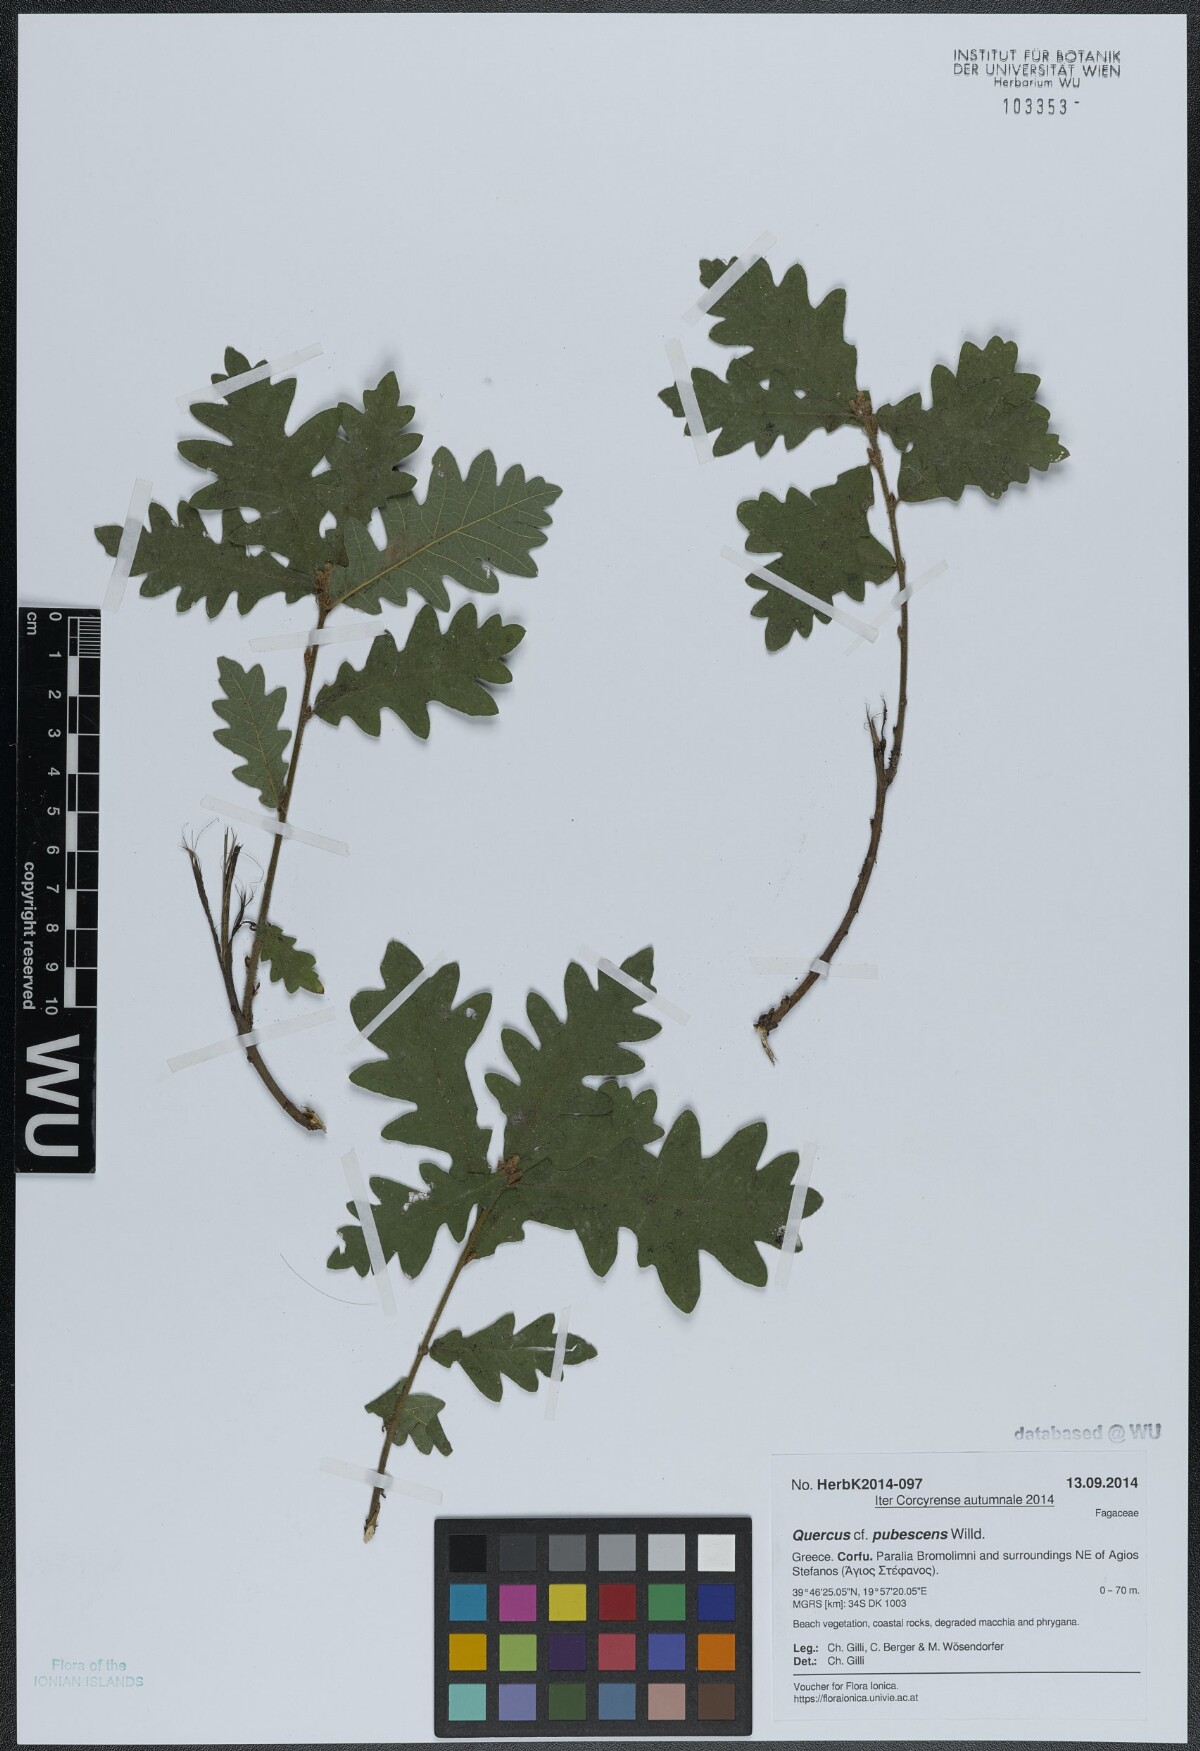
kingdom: Plantae
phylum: Tracheophyta
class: Magnoliopsida
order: Fagales
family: Fagaceae
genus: Quercus
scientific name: Quercus pubescens
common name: Downy oak
